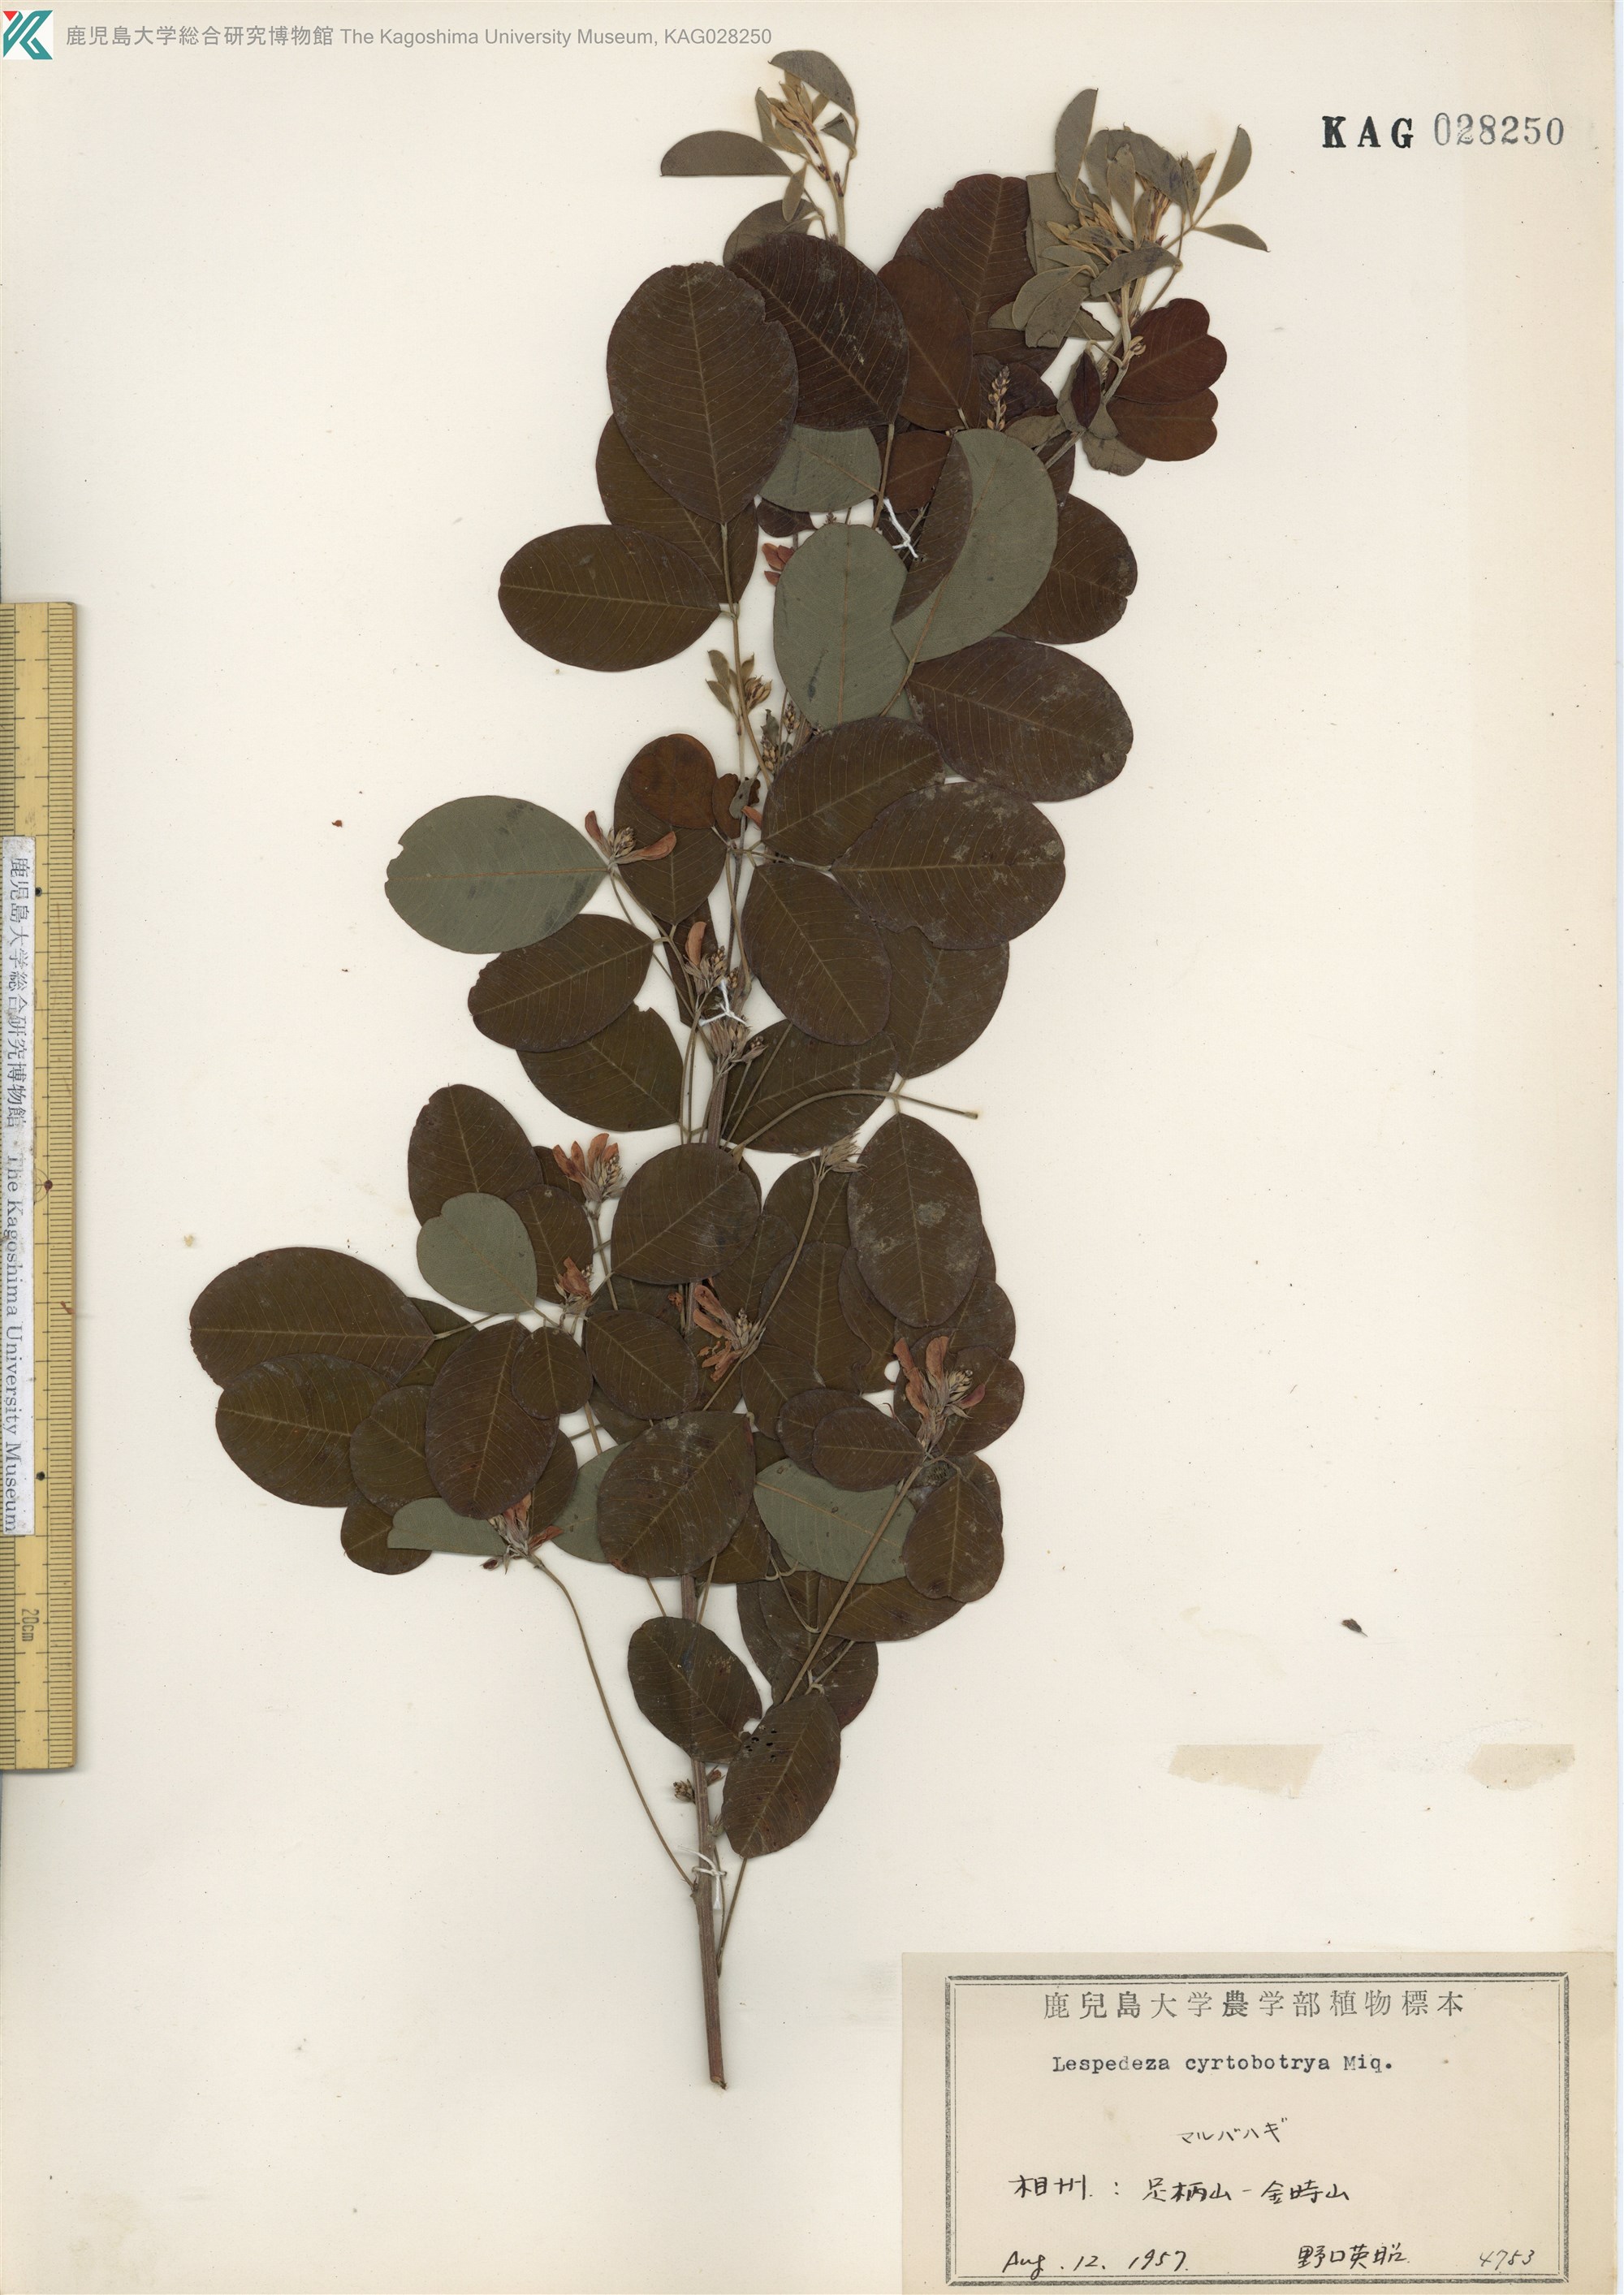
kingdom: Plantae
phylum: Tracheophyta
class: Magnoliopsida
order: Fabales
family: Fabaceae
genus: Lespedeza
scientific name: Lespedeza cyrtobotrya
